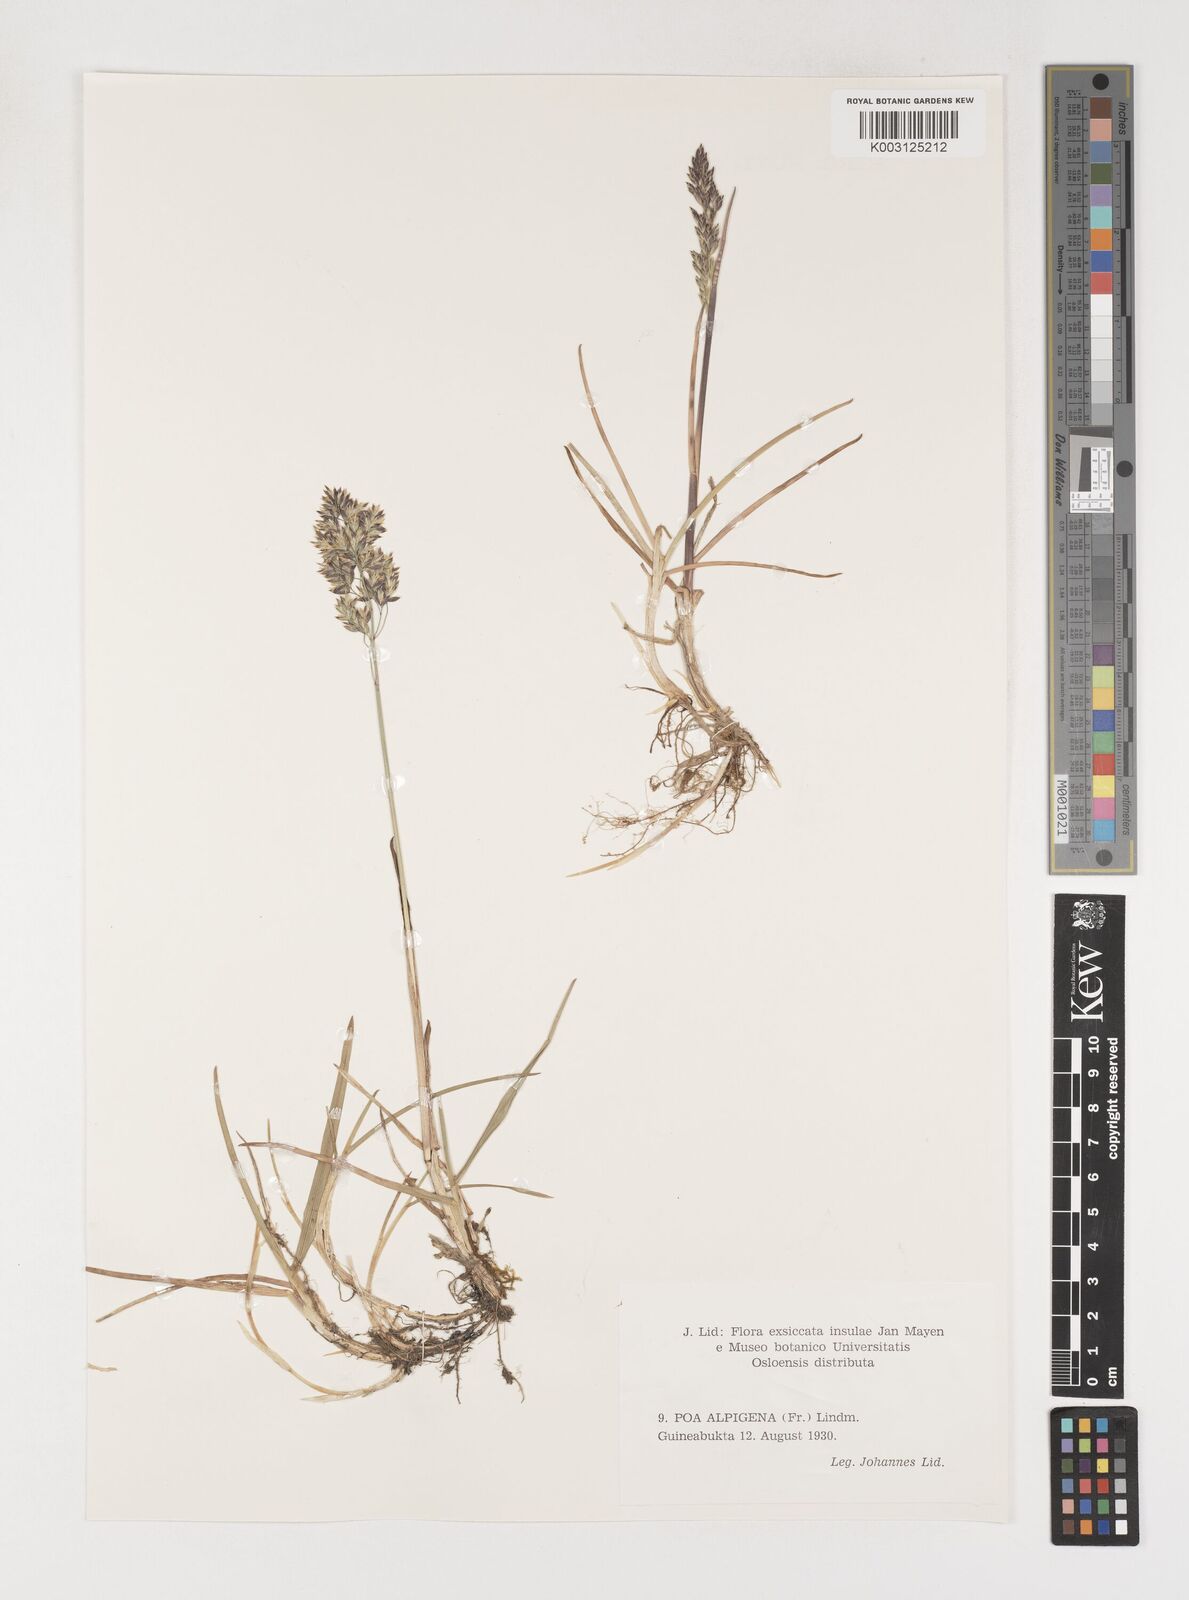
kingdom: Plantae
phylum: Tracheophyta
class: Liliopsida
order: Poales
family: Poaceae
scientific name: Poaceae
